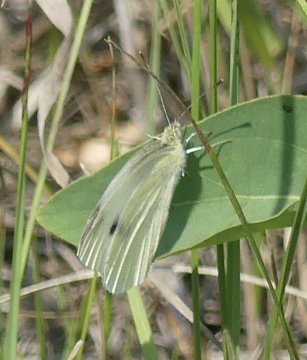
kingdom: Animalia
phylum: Arthropoda
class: Insecta
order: Lepidoptera
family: Pieridae
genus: Pieris
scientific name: Pieris rapae
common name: Cabbage White
